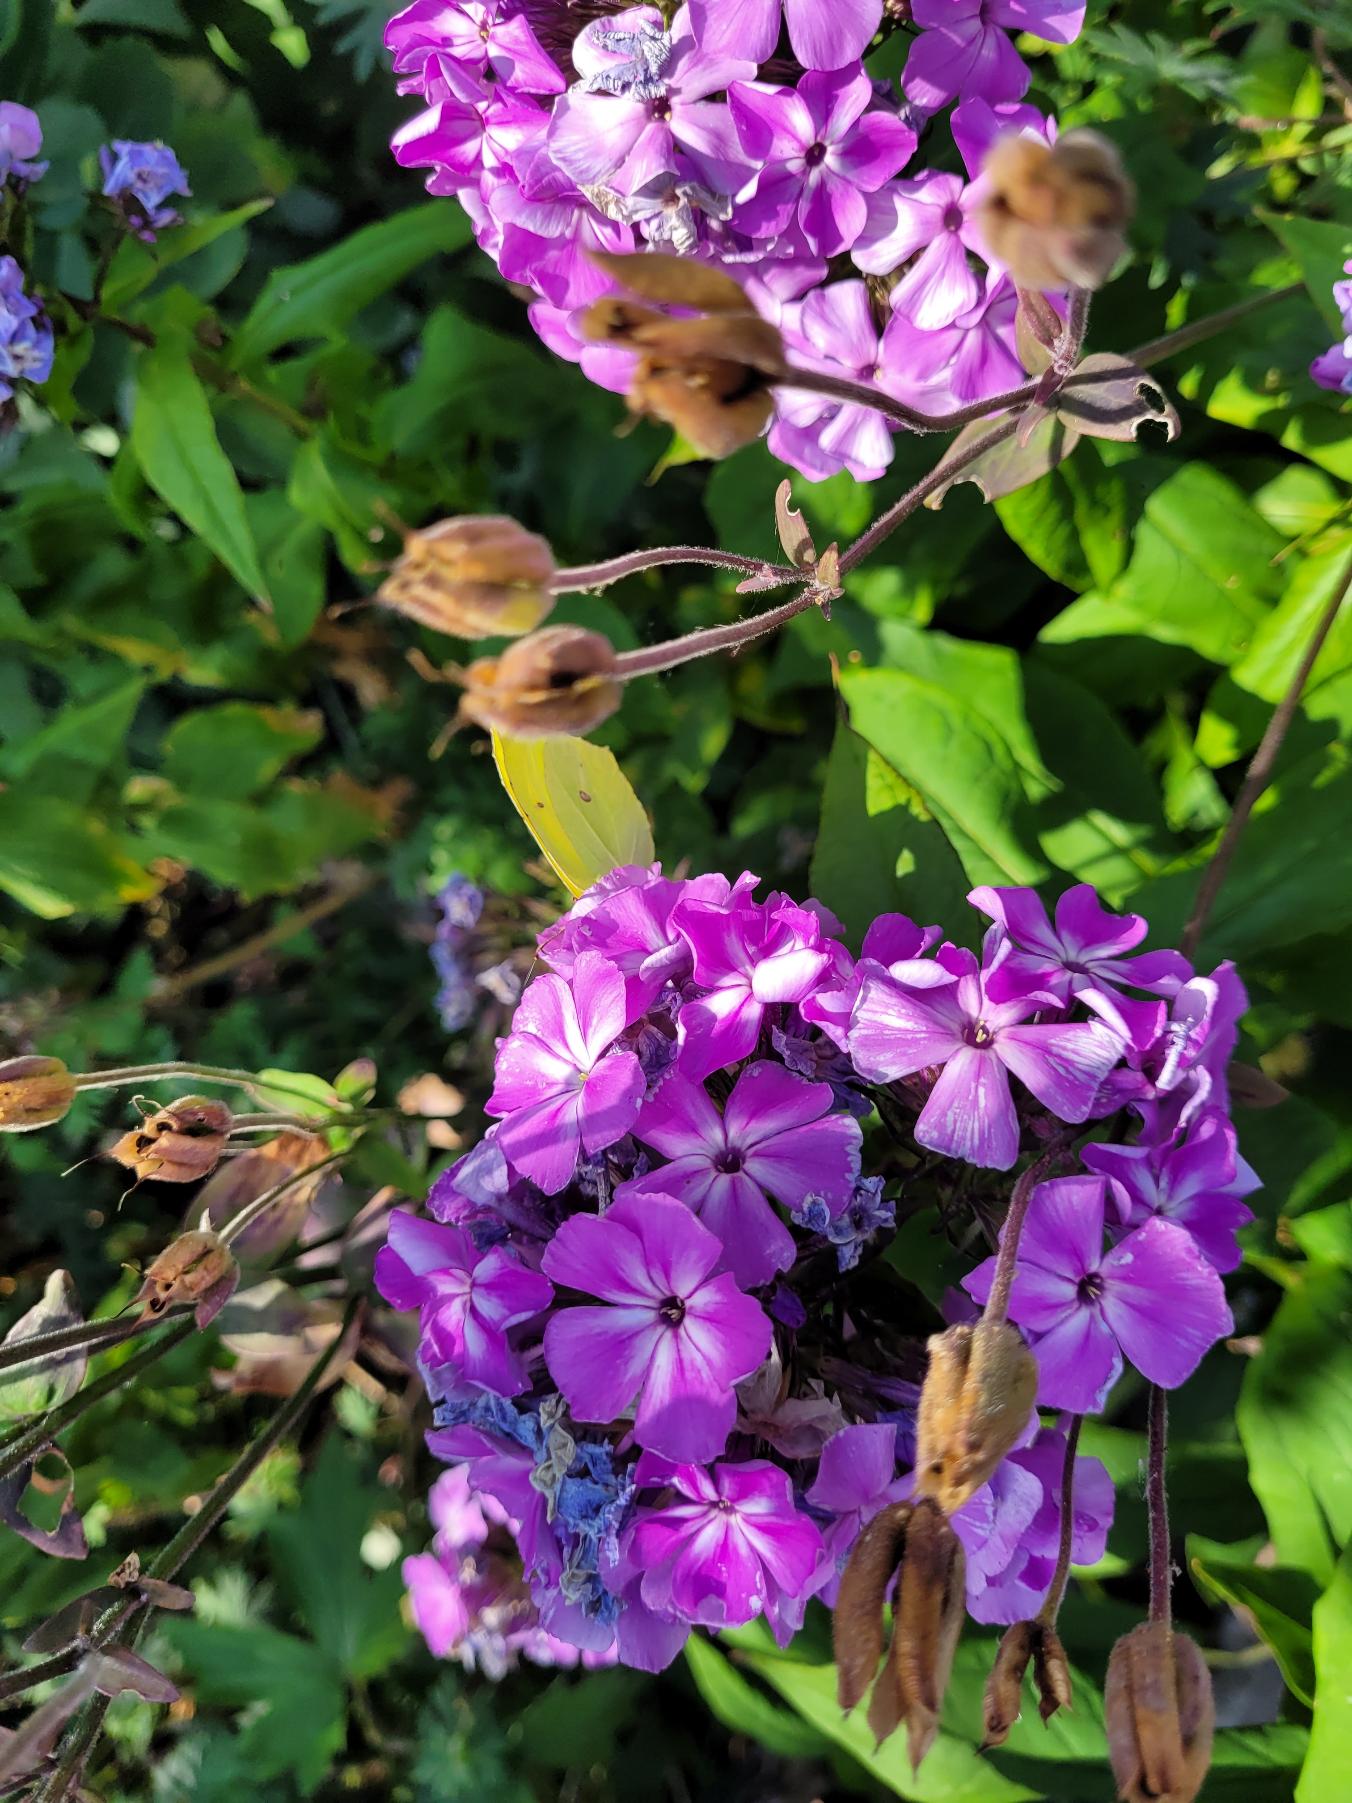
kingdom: Animalia
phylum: Arthropoda
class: Insecta
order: Lepidoptera
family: Pieridae
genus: Gonepteryx
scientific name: Gonepteryx rhamni
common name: Citronsommerfugl
